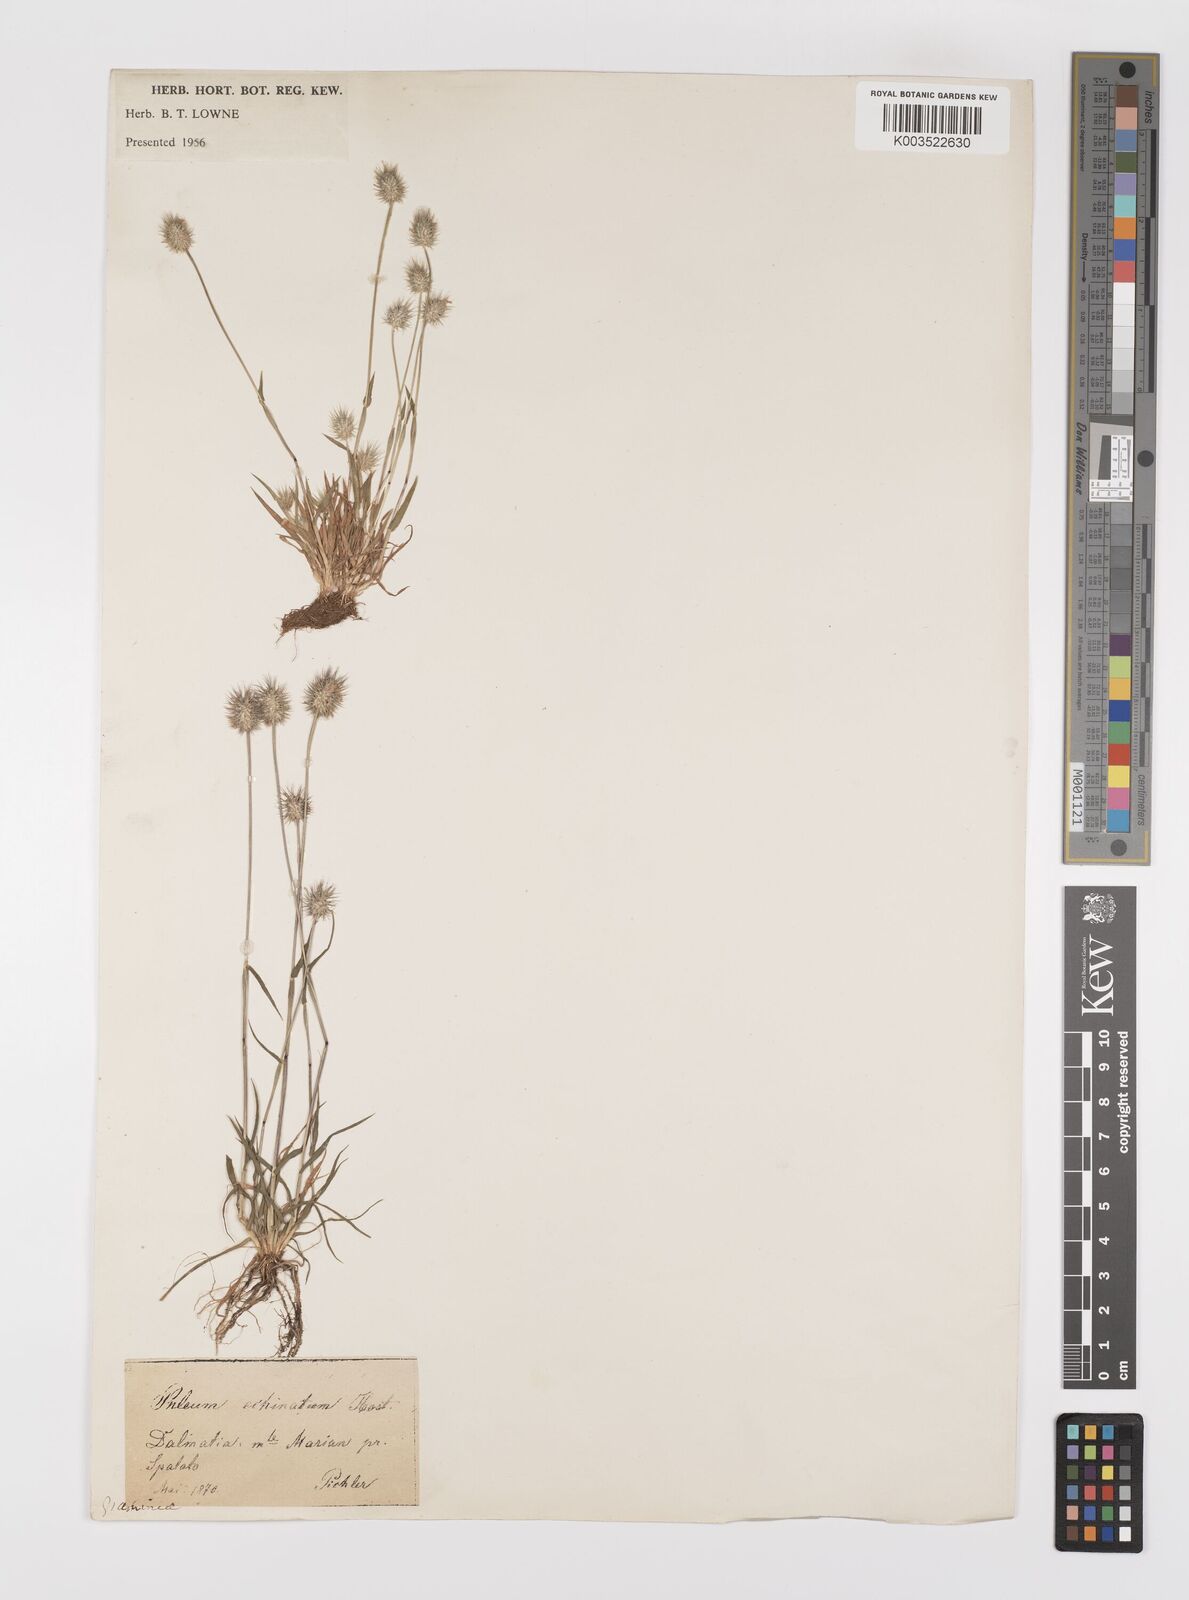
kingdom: Plantae
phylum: Tracheophyta
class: Liliopsida
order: Poales
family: Poaceae
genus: Phleum
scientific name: Phleum echinatum
